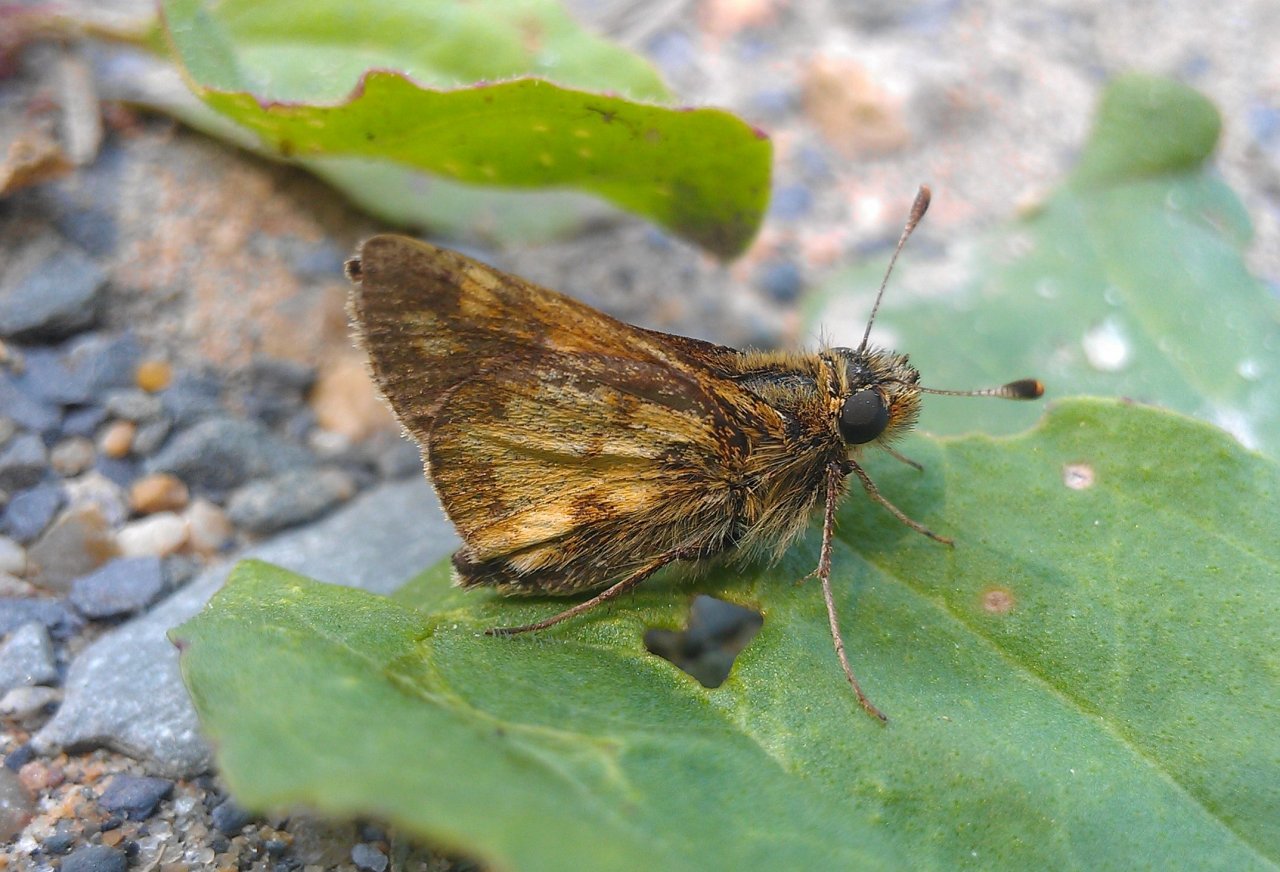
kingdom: Animalia
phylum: Arthropoda
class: Insecta
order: Lepidoptera
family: Hesperiidae
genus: Polites
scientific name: Polites coras
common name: Peck's Skipper
